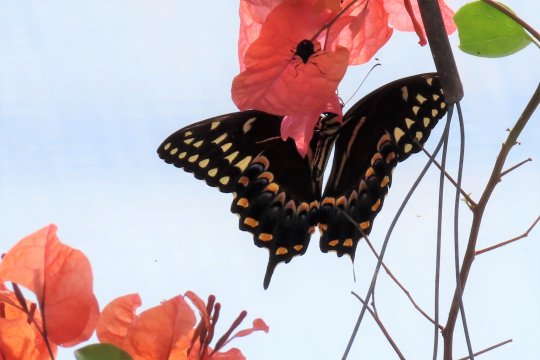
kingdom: Animalia
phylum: Arthropoda
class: Insecta
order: Lepidoptera
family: Papilionidae
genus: Pterourus
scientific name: Pterourus palamedes
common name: Palamedes Swallowtail
